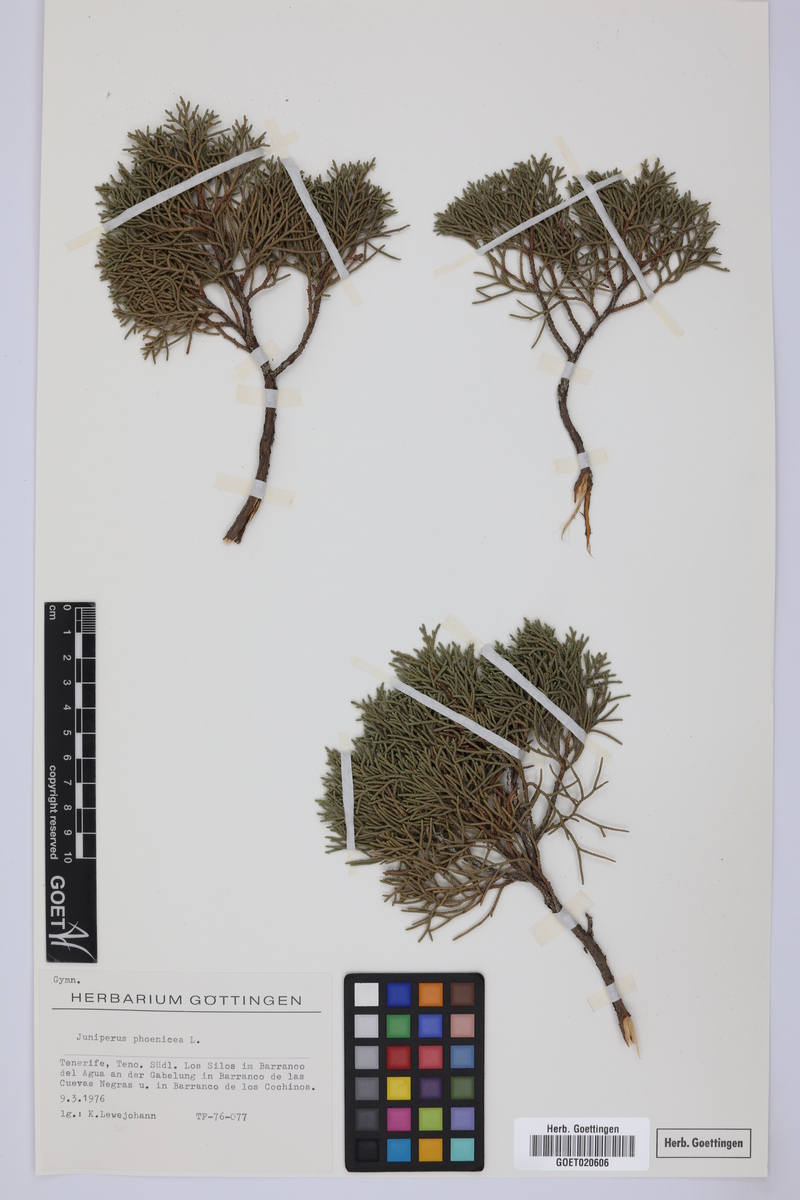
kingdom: Plantae
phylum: Tracheophyta
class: Pinopsida
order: Pinales
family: Cupressaceae
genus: Juniperus
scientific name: Juniperus phoenicea
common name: Phoenician juniper
